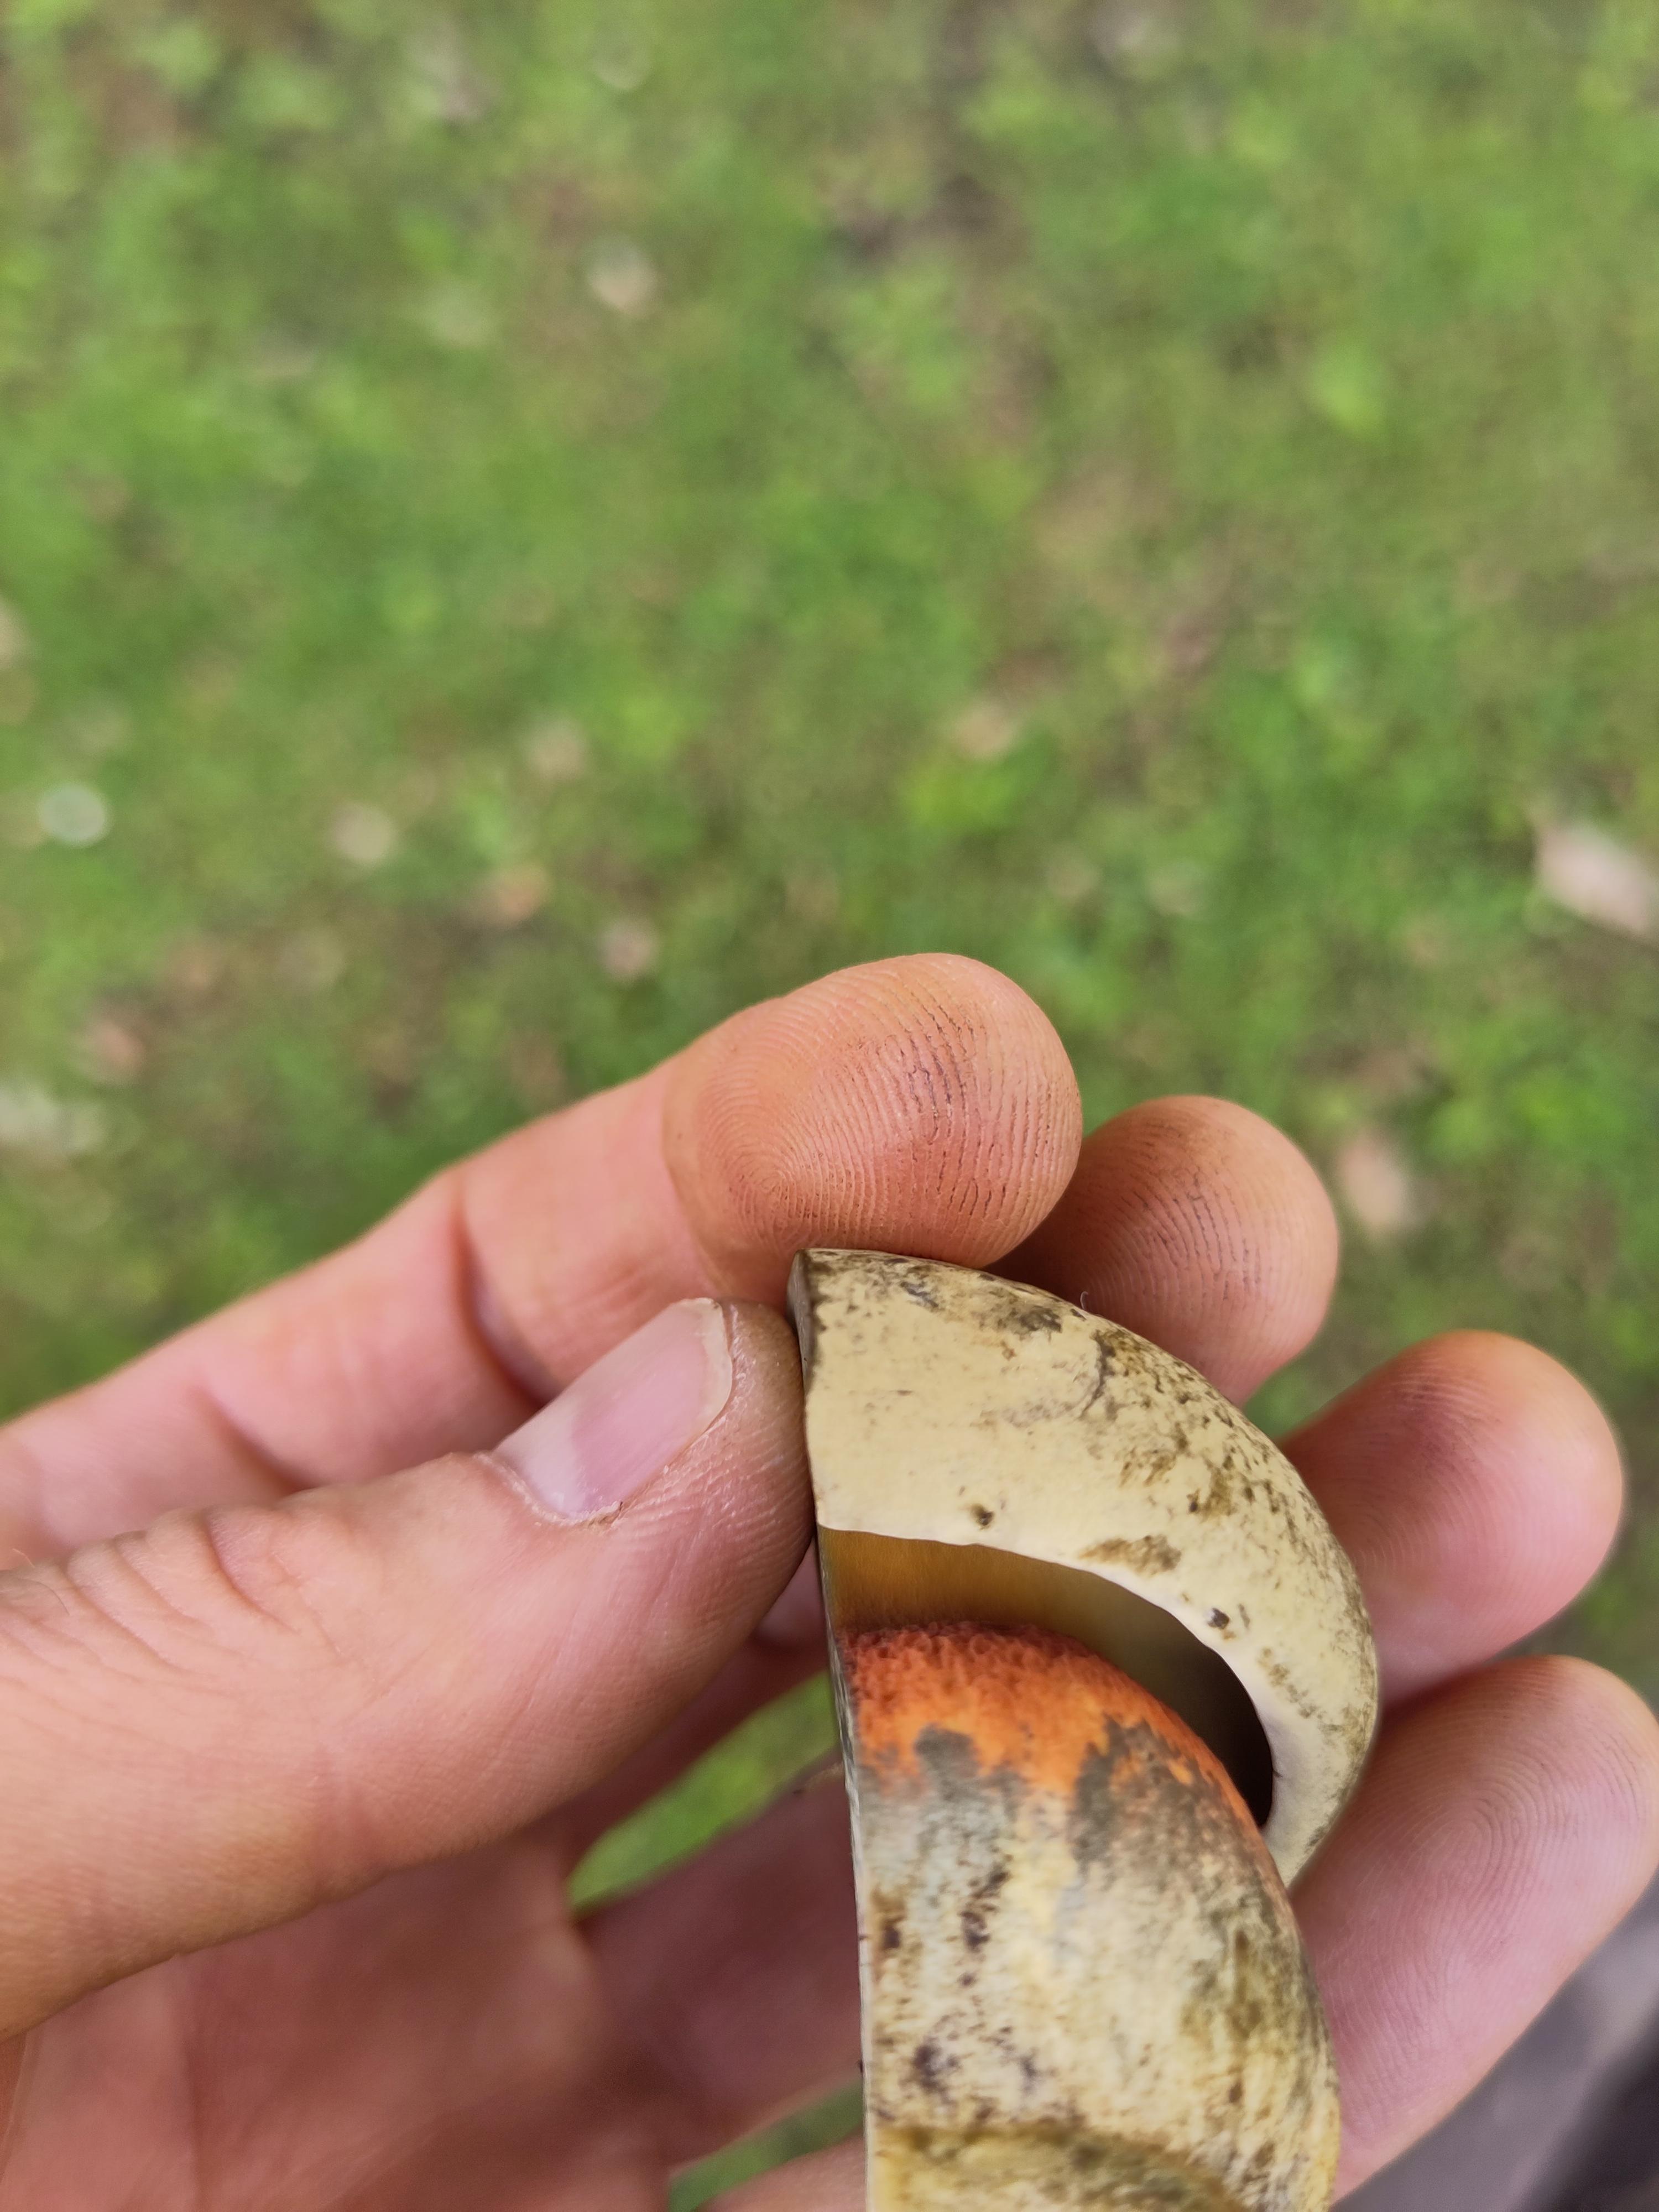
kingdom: Fungi
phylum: Basidiomycota
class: Agaricomycetes
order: Boletales
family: Boletaceae
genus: Suillellus
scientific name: Suillellus luridus
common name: netstokket indigorørhat
